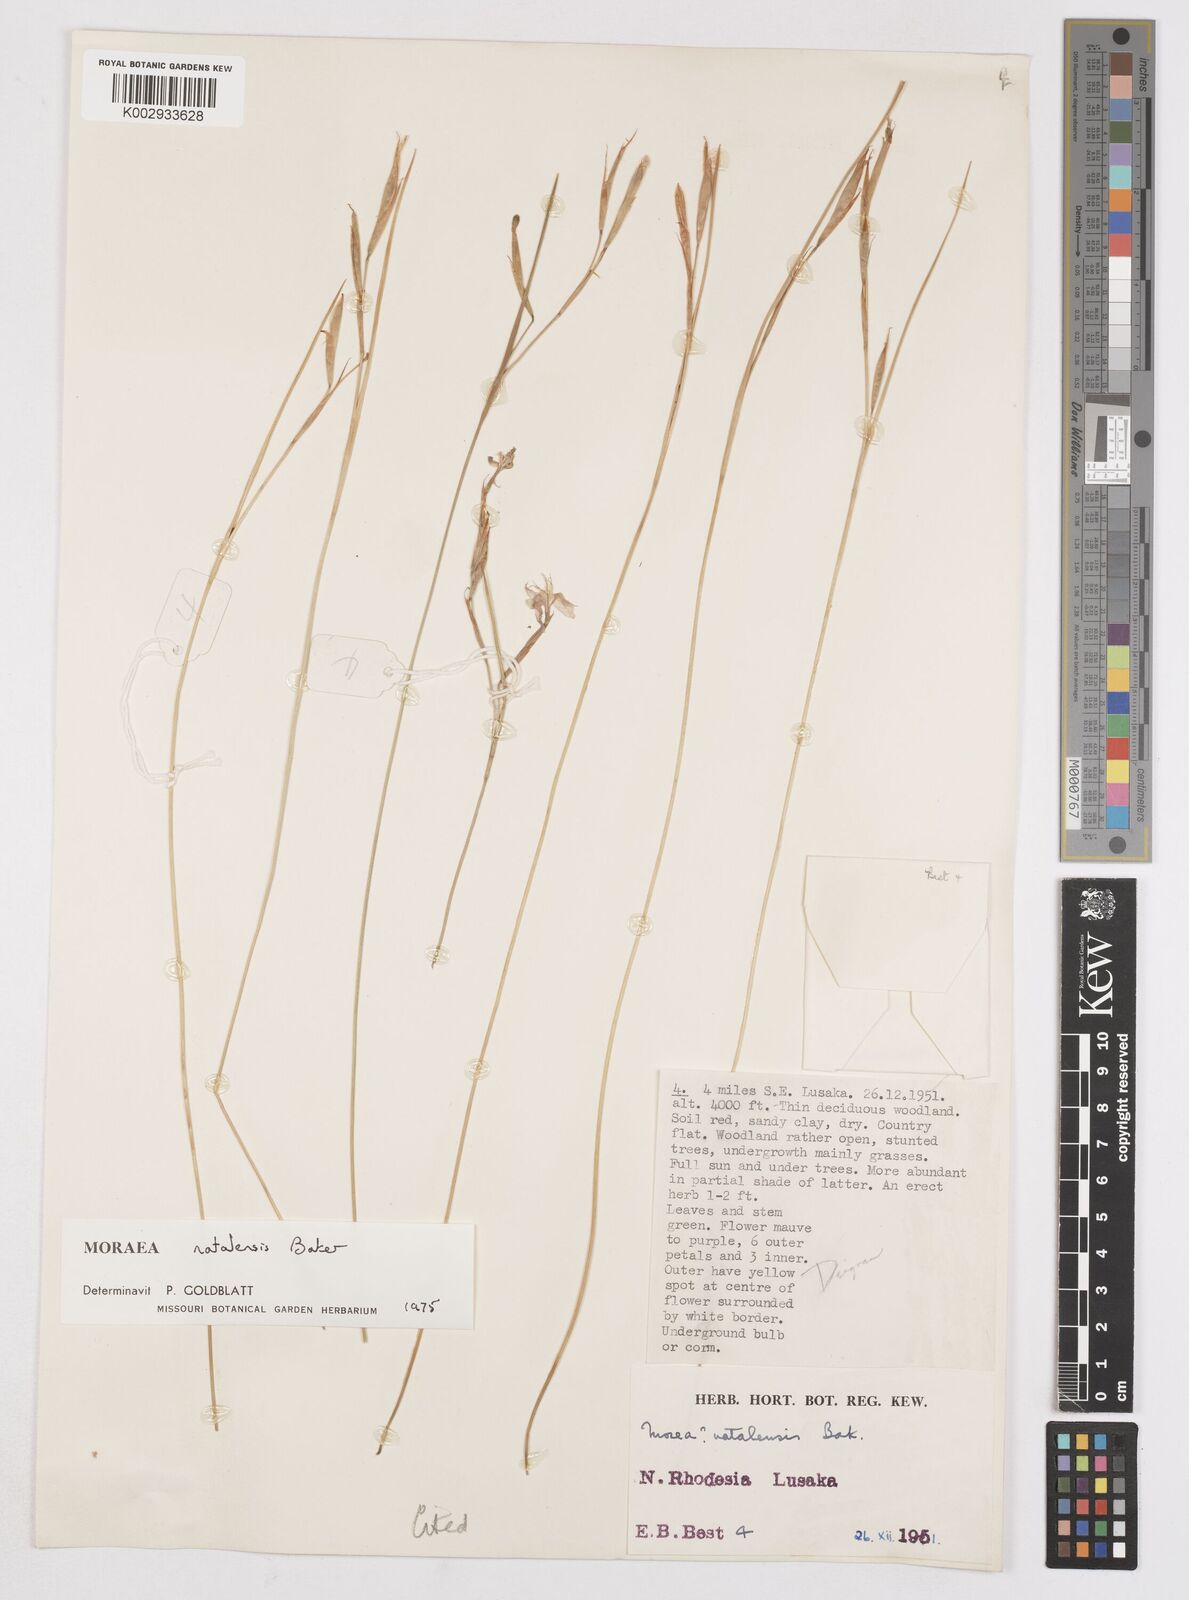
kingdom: Plantae
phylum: Tracheophyta
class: Liliopsida
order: Asparagales
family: Iridaceae
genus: Moraea
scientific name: Moraea natalensis
